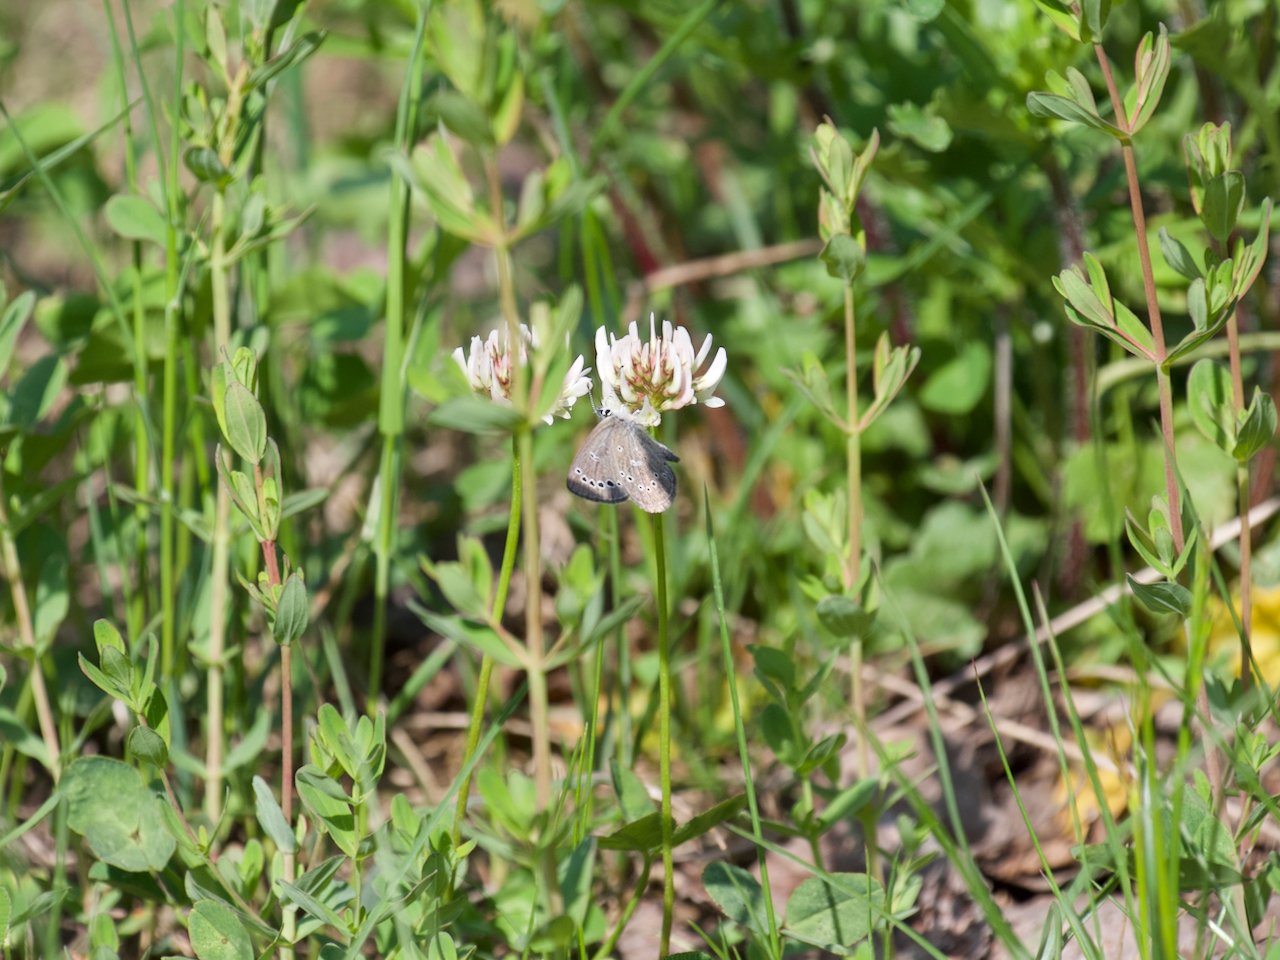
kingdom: Animalia
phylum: Arthropoda
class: Insecta
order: Lepidoptera
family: Lycaenidae
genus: Glaucopsyche
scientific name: Glaucopsyche lygdamus
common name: Silvery Blue
